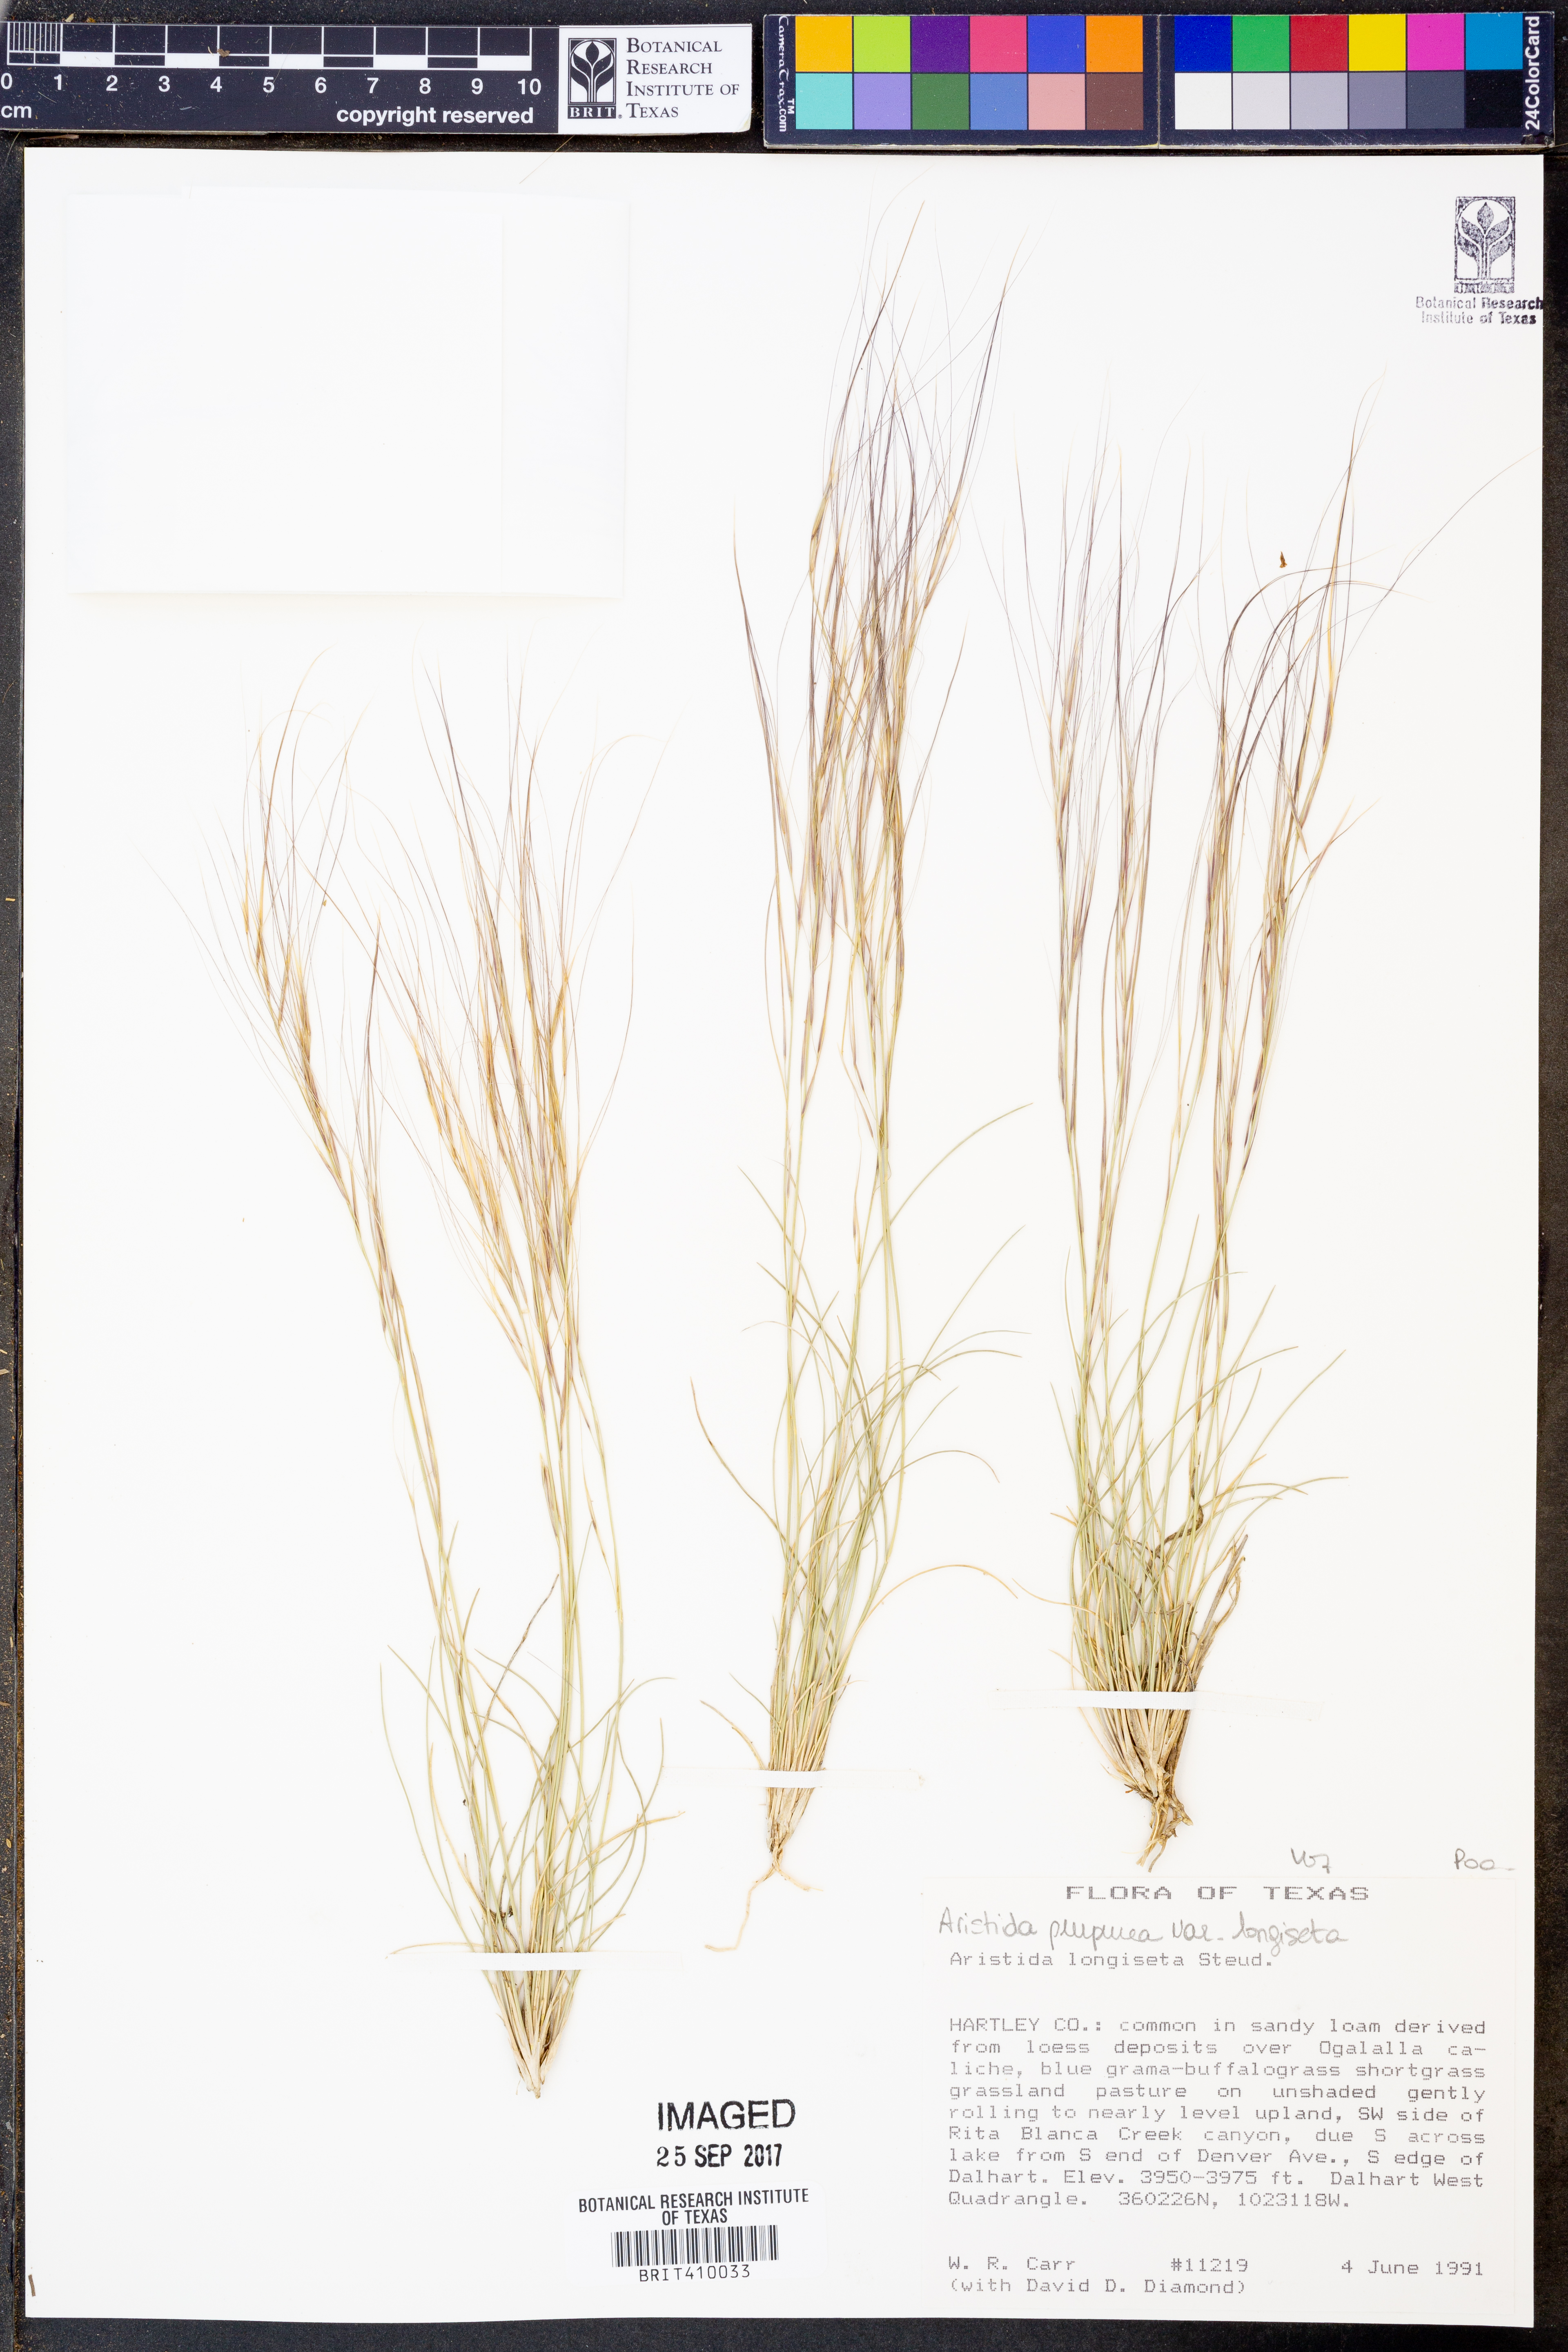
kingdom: Plantae
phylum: Tracheophyta
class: Liliopsida
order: Poales
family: Poaceae
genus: Aristida
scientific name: Aristida purpurea
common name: Purple threeawn
